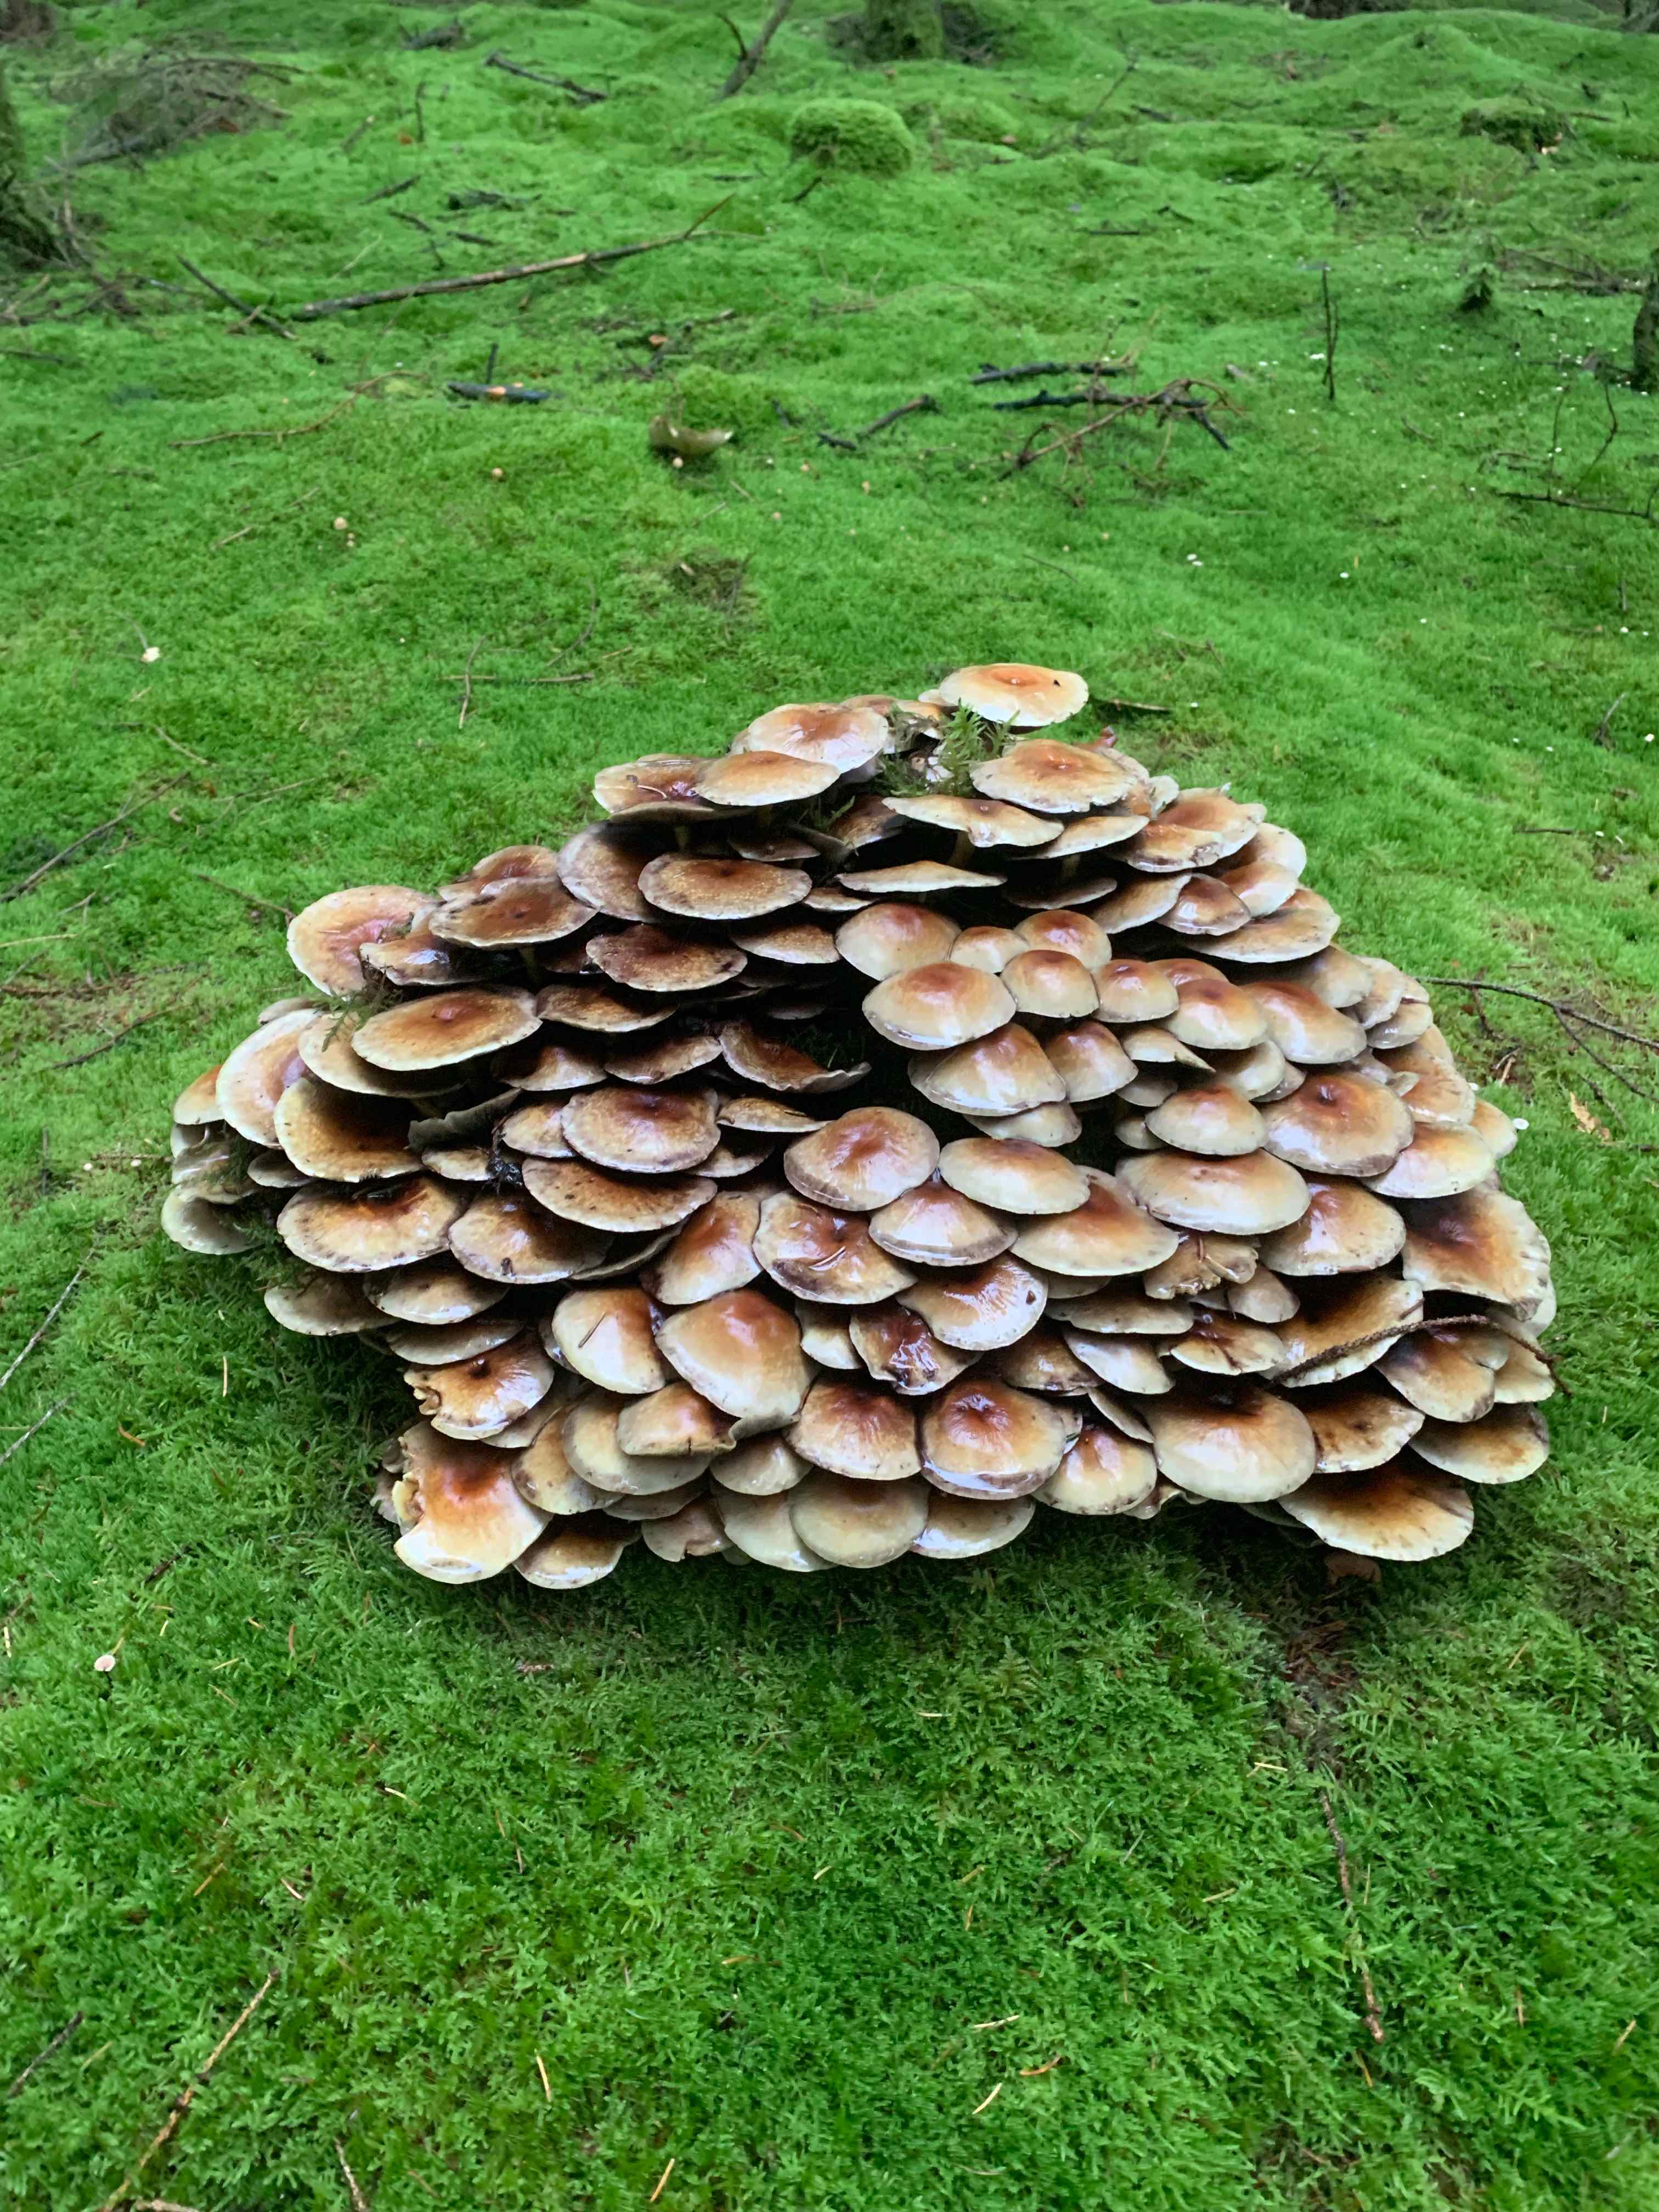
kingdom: Fungi
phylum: Basidiomycota
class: Agaricomycetes
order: Agaricales
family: Strophariaceae
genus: Hypholoma
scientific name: Hypholoma
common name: svovlhat
